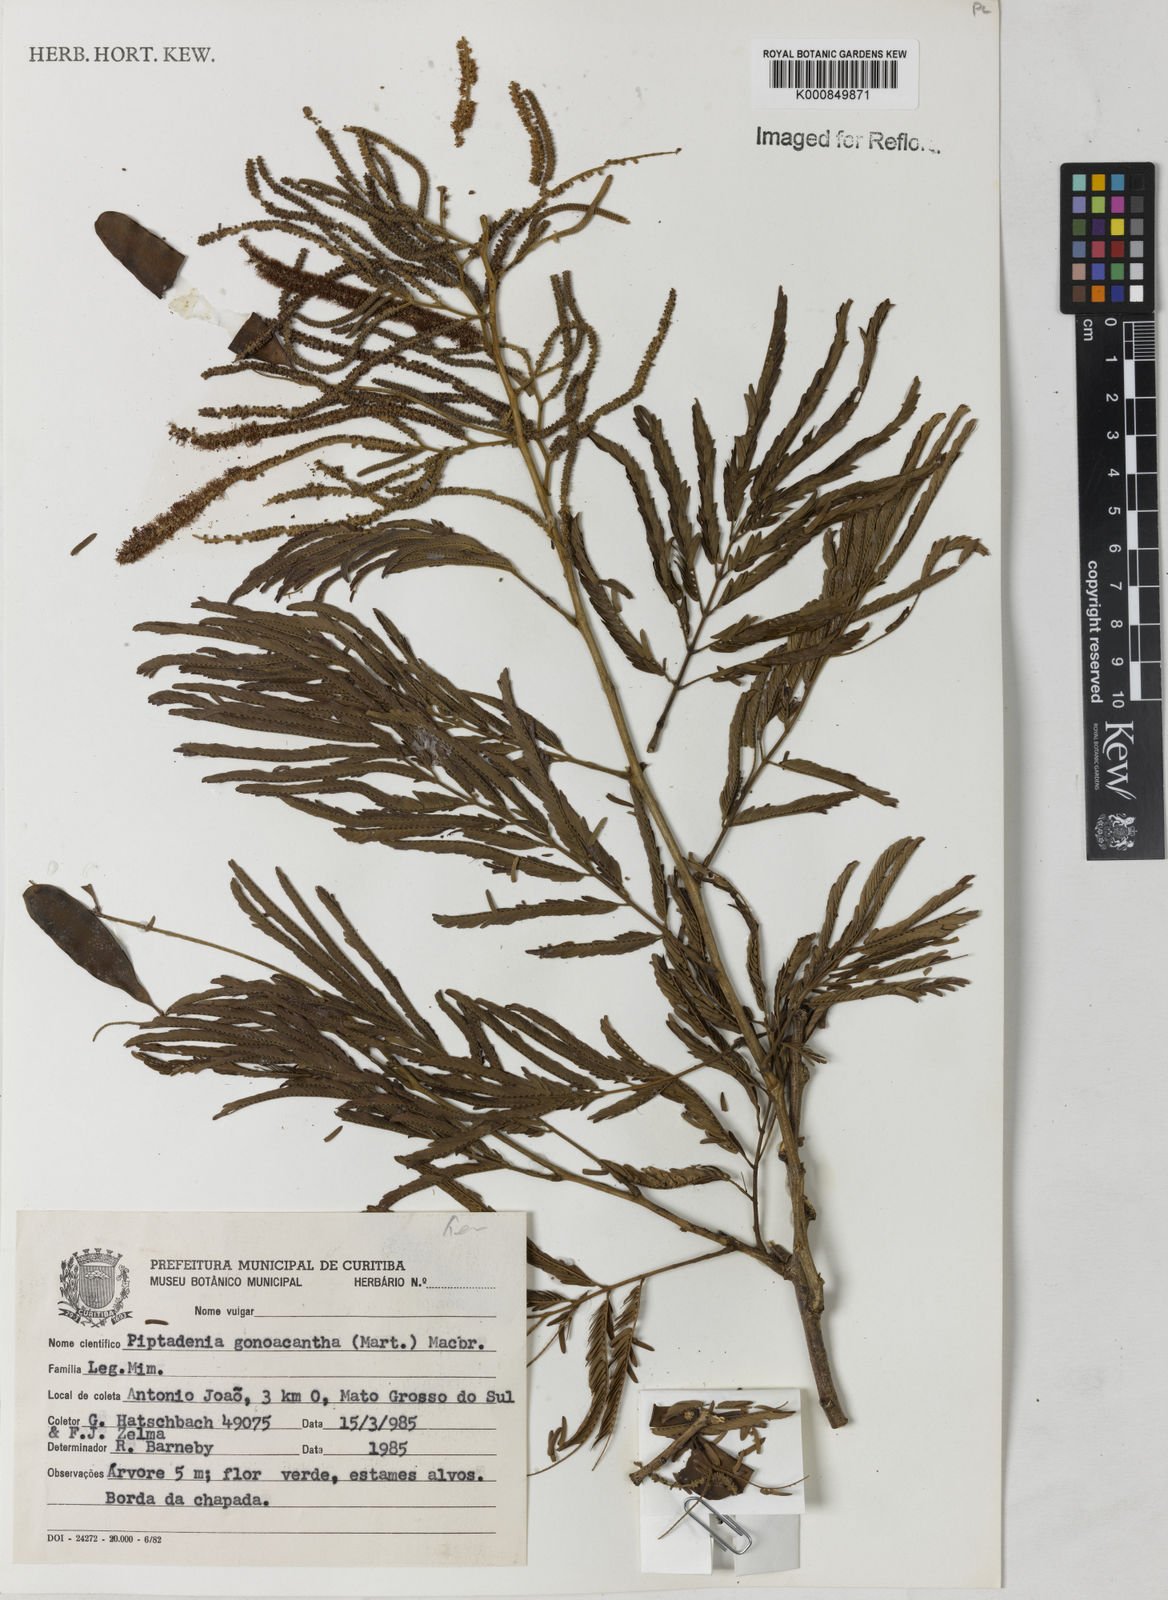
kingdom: Plantae
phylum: Tracheophyta
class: Magnoliopsida
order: Fabales
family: Fabaceae
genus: Piptadenia
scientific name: Piptadenia gonoacantha
